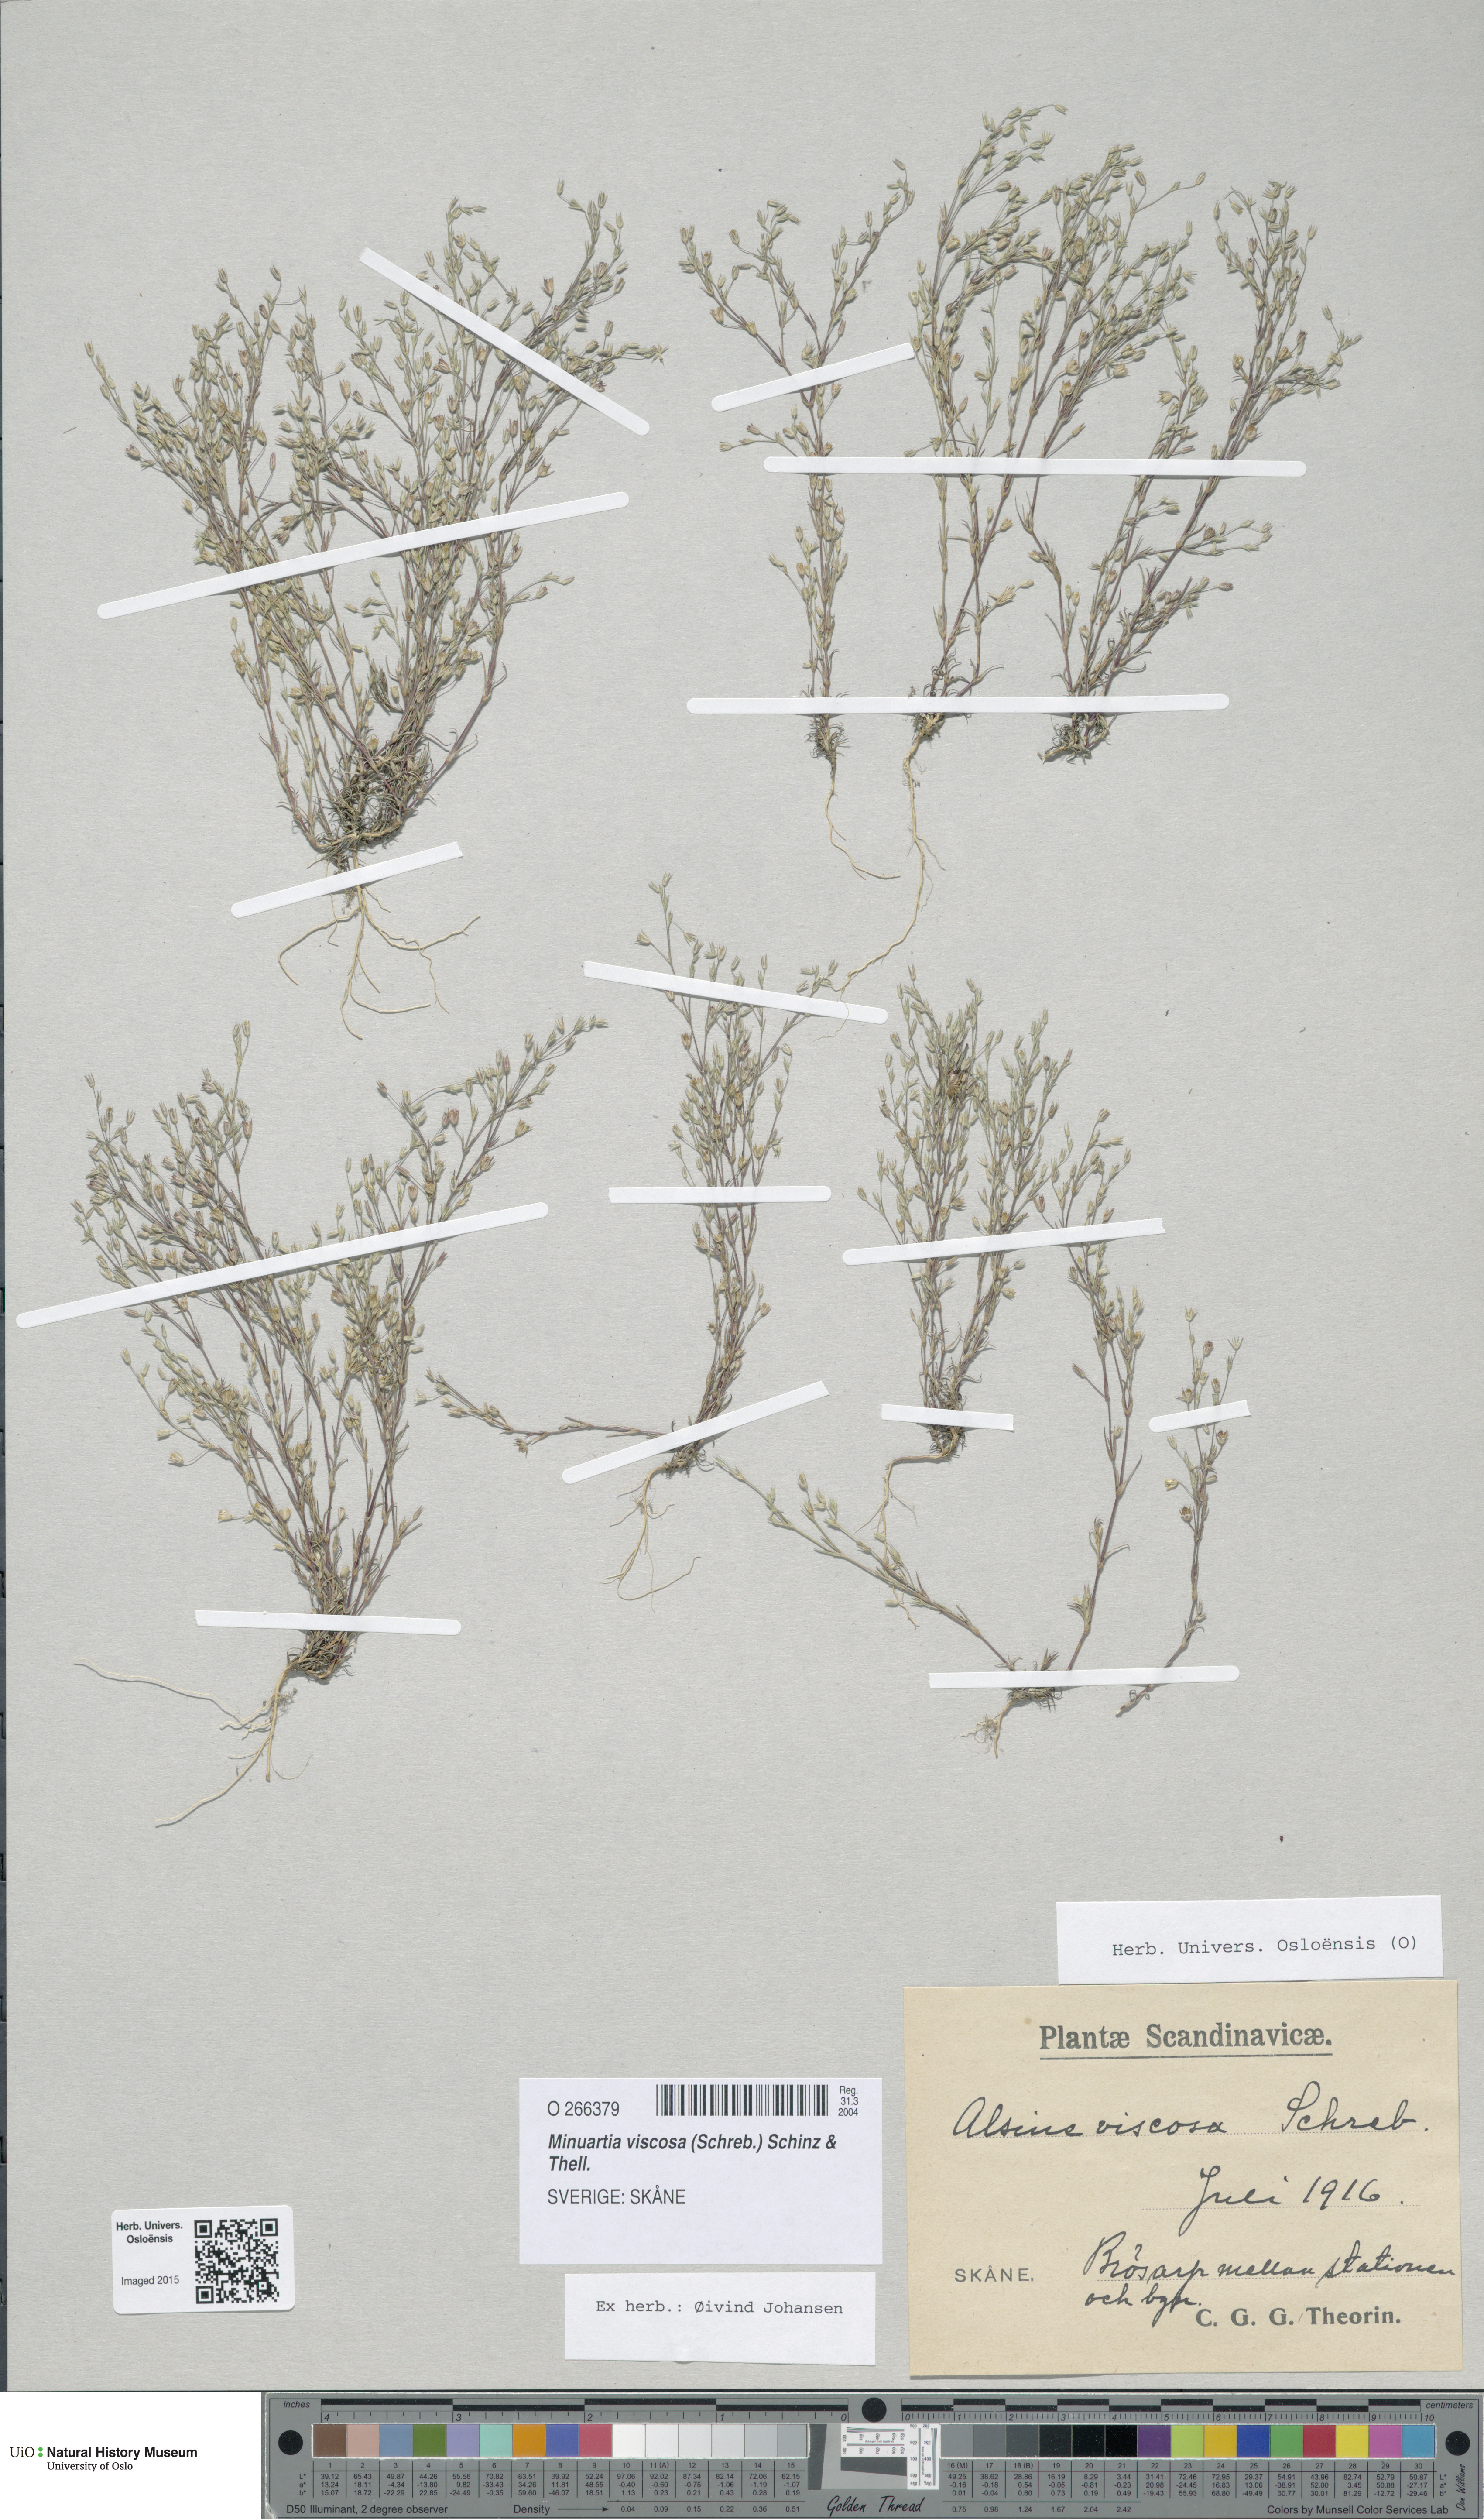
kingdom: Plantae
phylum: Tracheophyta
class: Magnoliopsida
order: Caryophyllales
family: Caryophyllaceae
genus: Sabulina
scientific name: Sabulina viscosa
